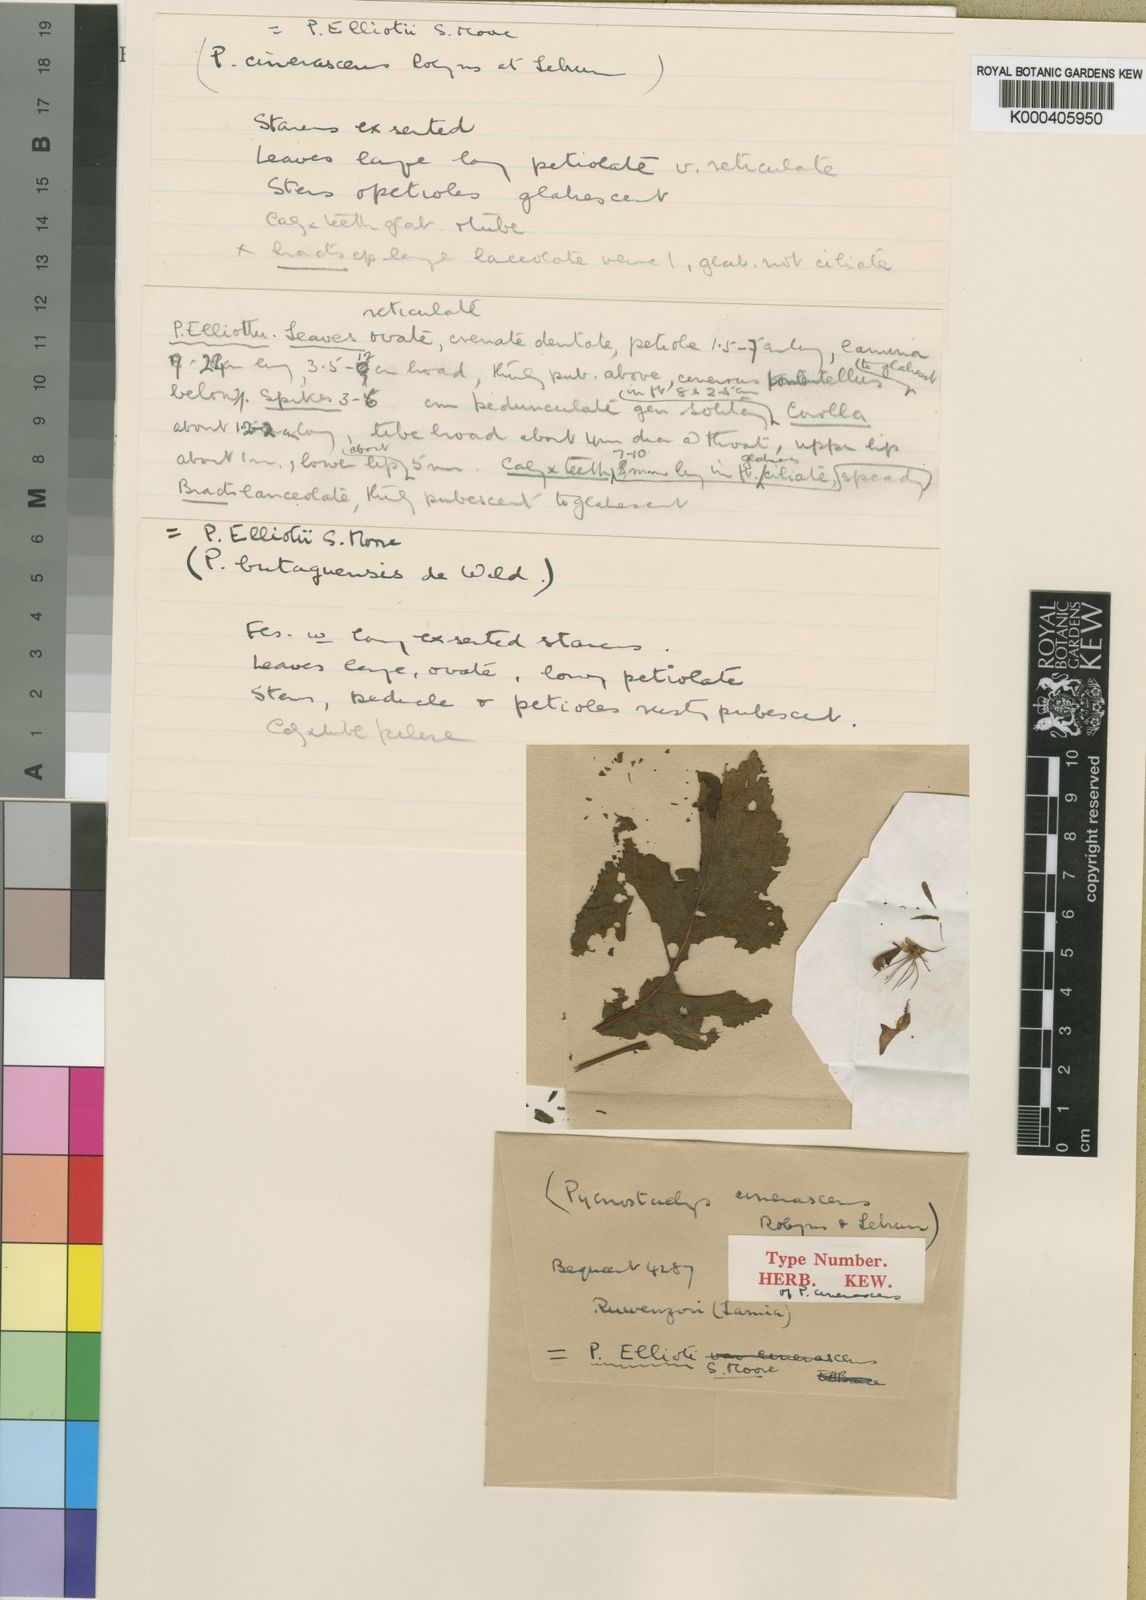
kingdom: Plantae
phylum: Tracheophyta
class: Magnoliopsida
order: Lamiales
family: Lamiaceae
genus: Coleus
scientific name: Coleus elliotii
